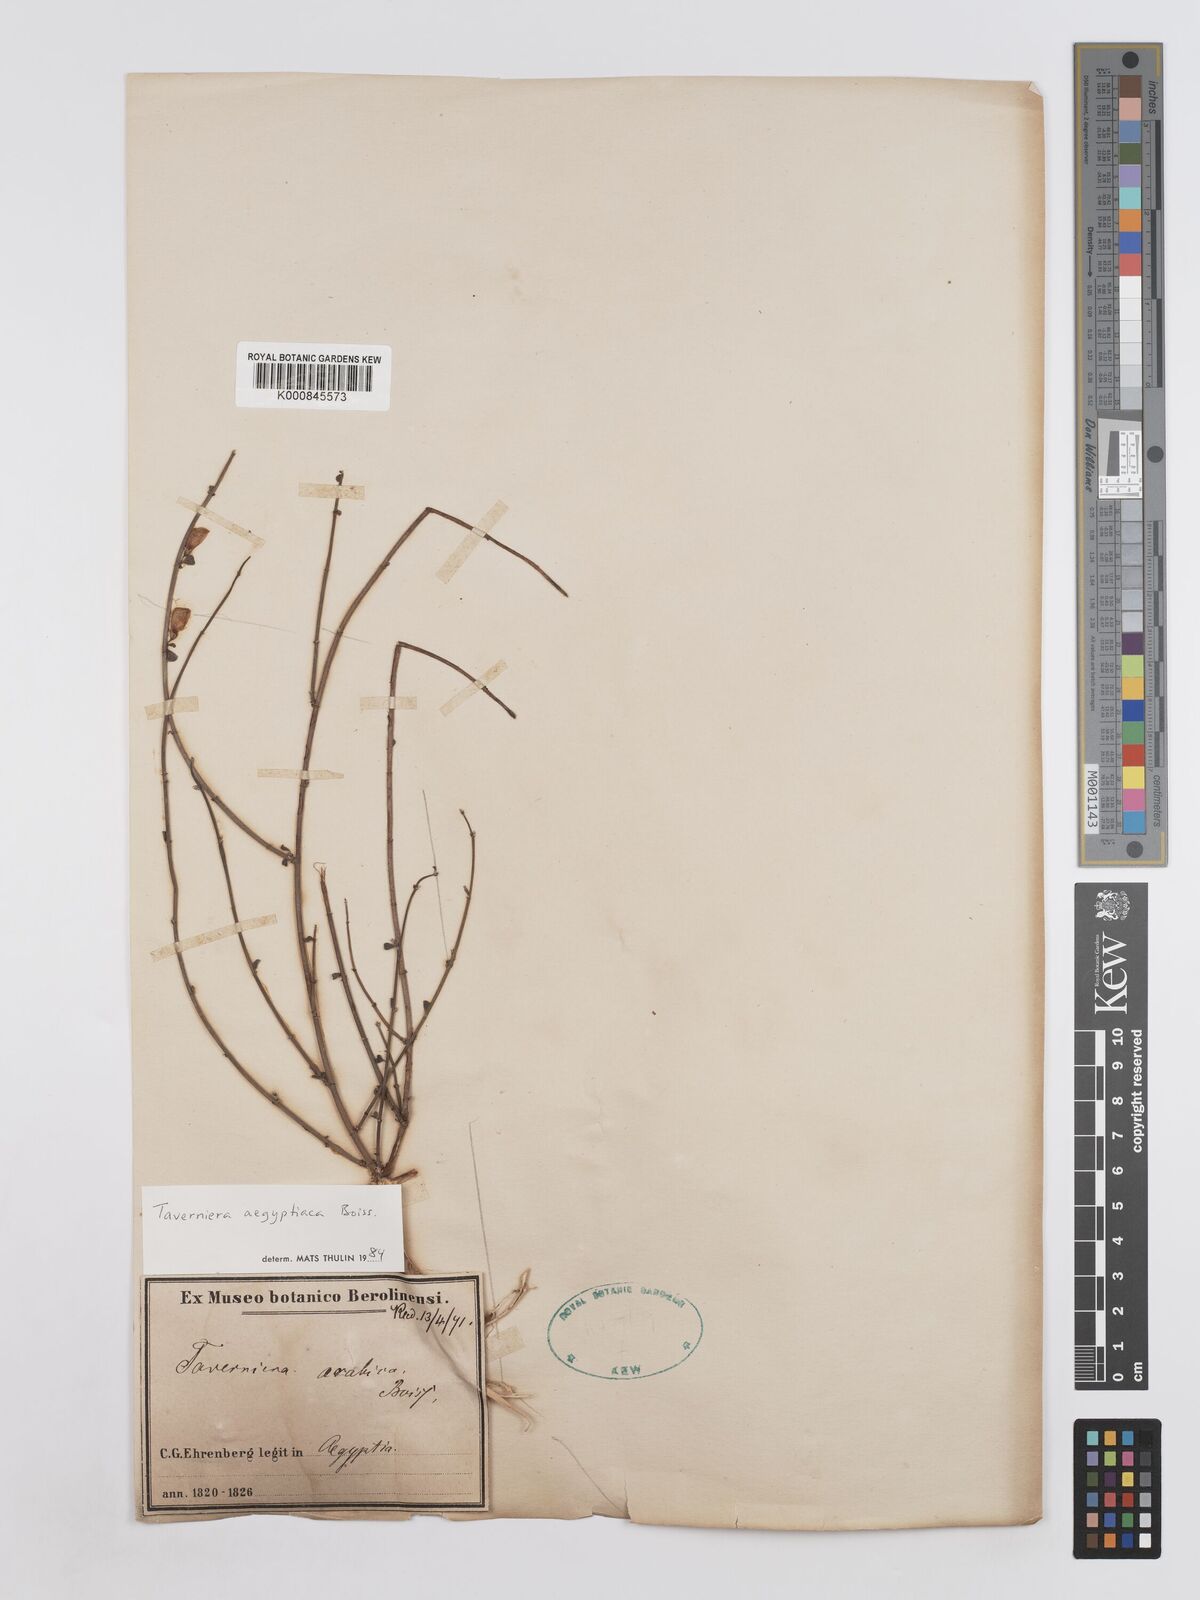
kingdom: Plantae
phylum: Tracheophyta
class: Magnoliopsida
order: Fabales
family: Fabaceae
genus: Taverniera
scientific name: Taverniera aegyptiaca
